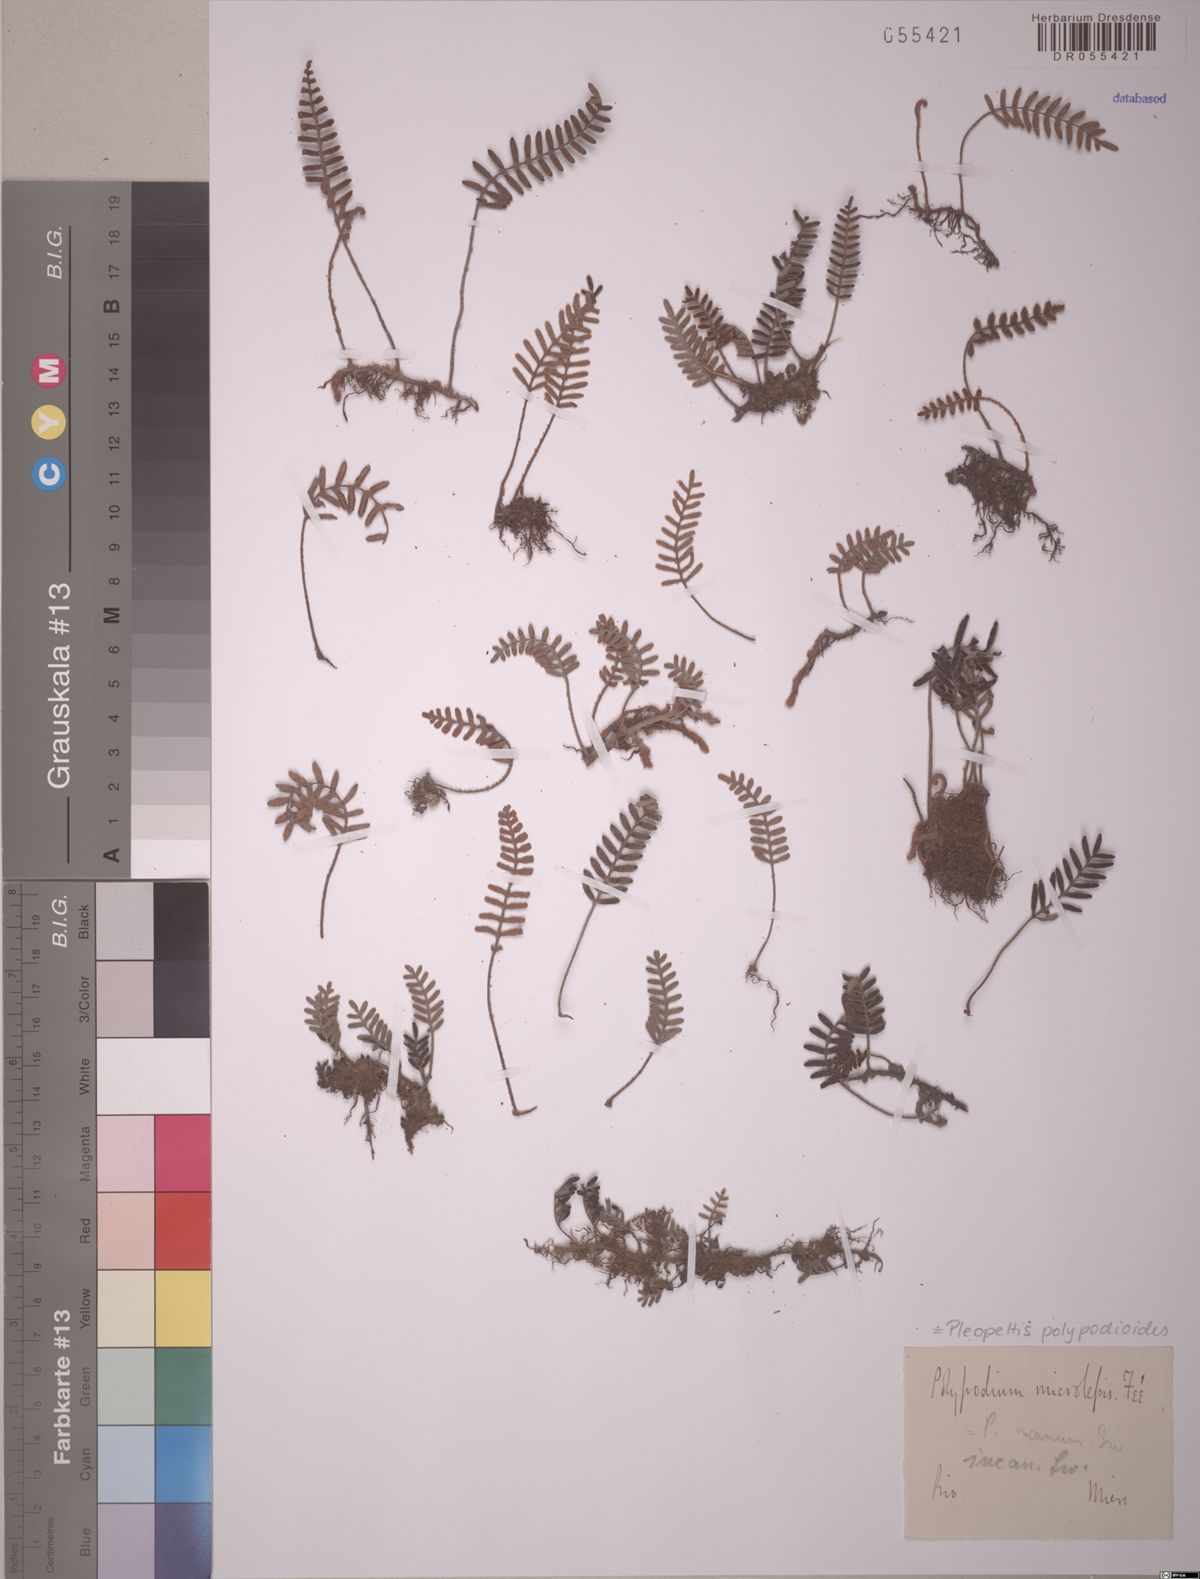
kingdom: Plantae
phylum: Tracheophyta
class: Polypodiopsida
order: Polypodiales
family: Polypodiaceae
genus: Pleopeltis
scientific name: Pleopeltis polypodioides
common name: Resurrection fern
